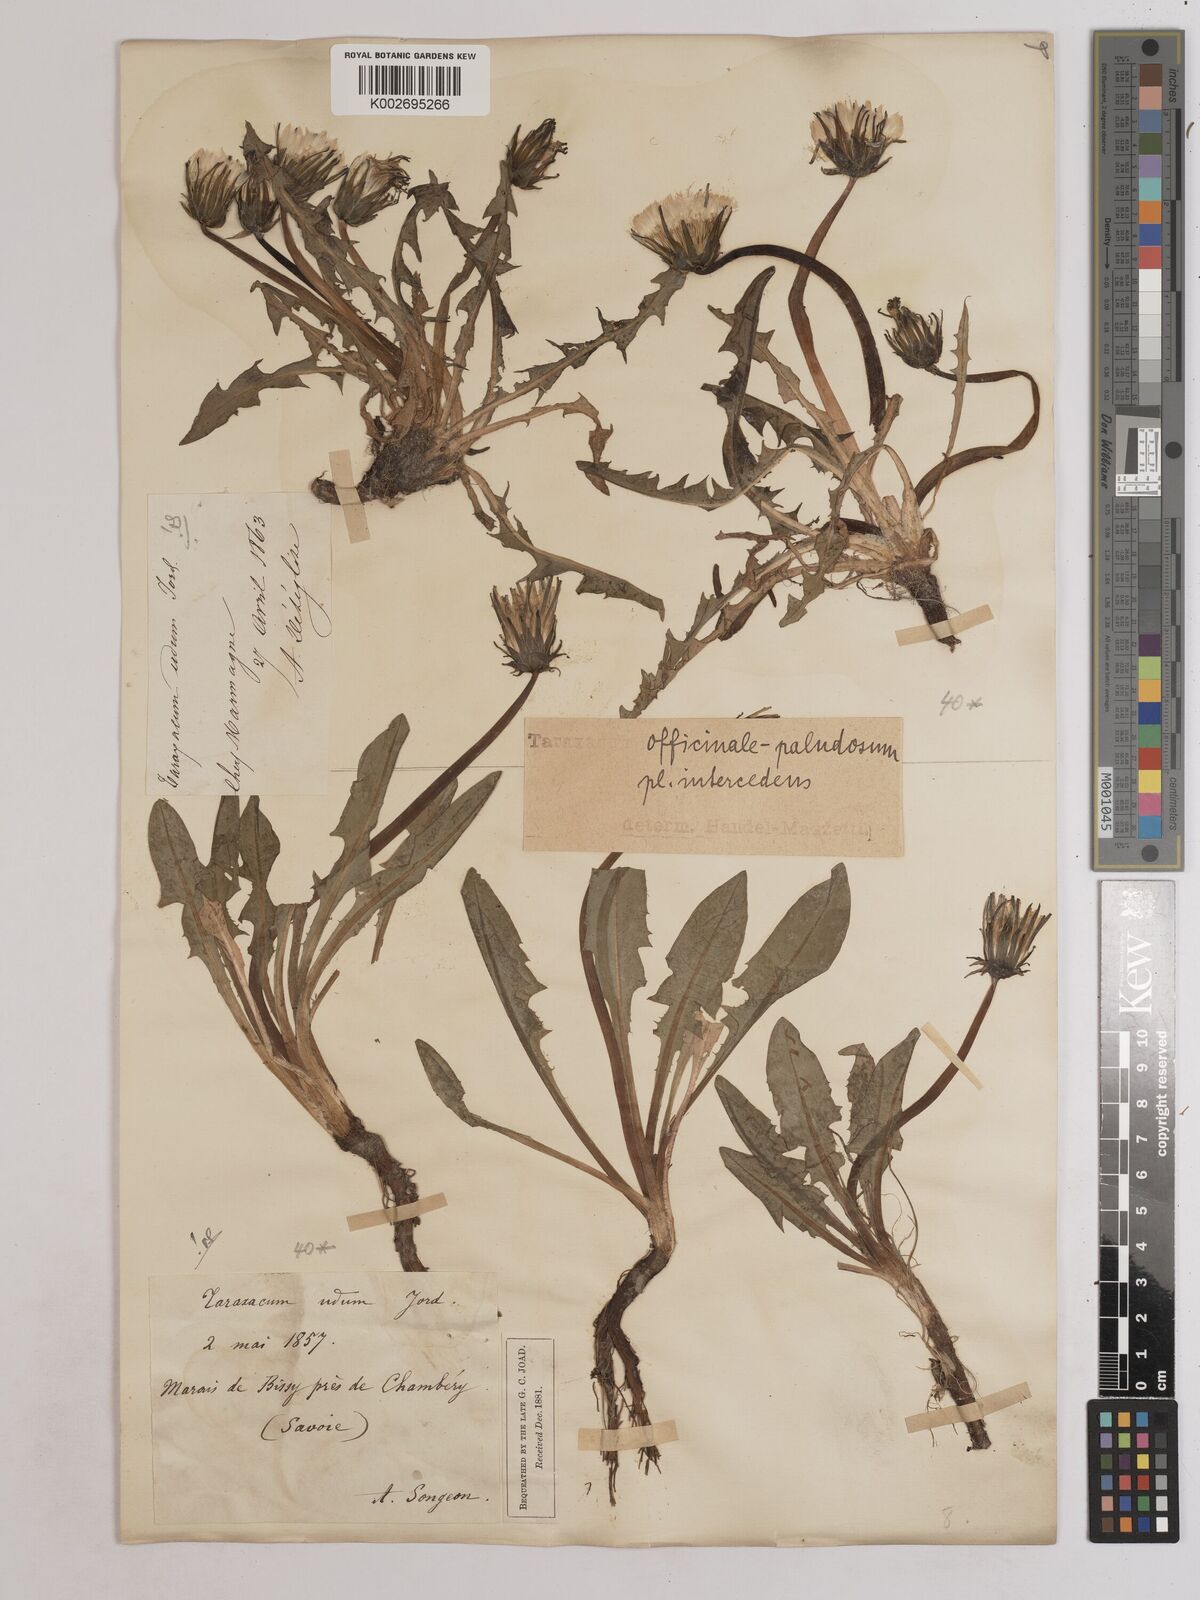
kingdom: Plantae
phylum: Tracheophyta
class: Magnoliopsida
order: Asterales
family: Asteraceae
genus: Taraxacum
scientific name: Taraxacum officinale
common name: Common dandelion
